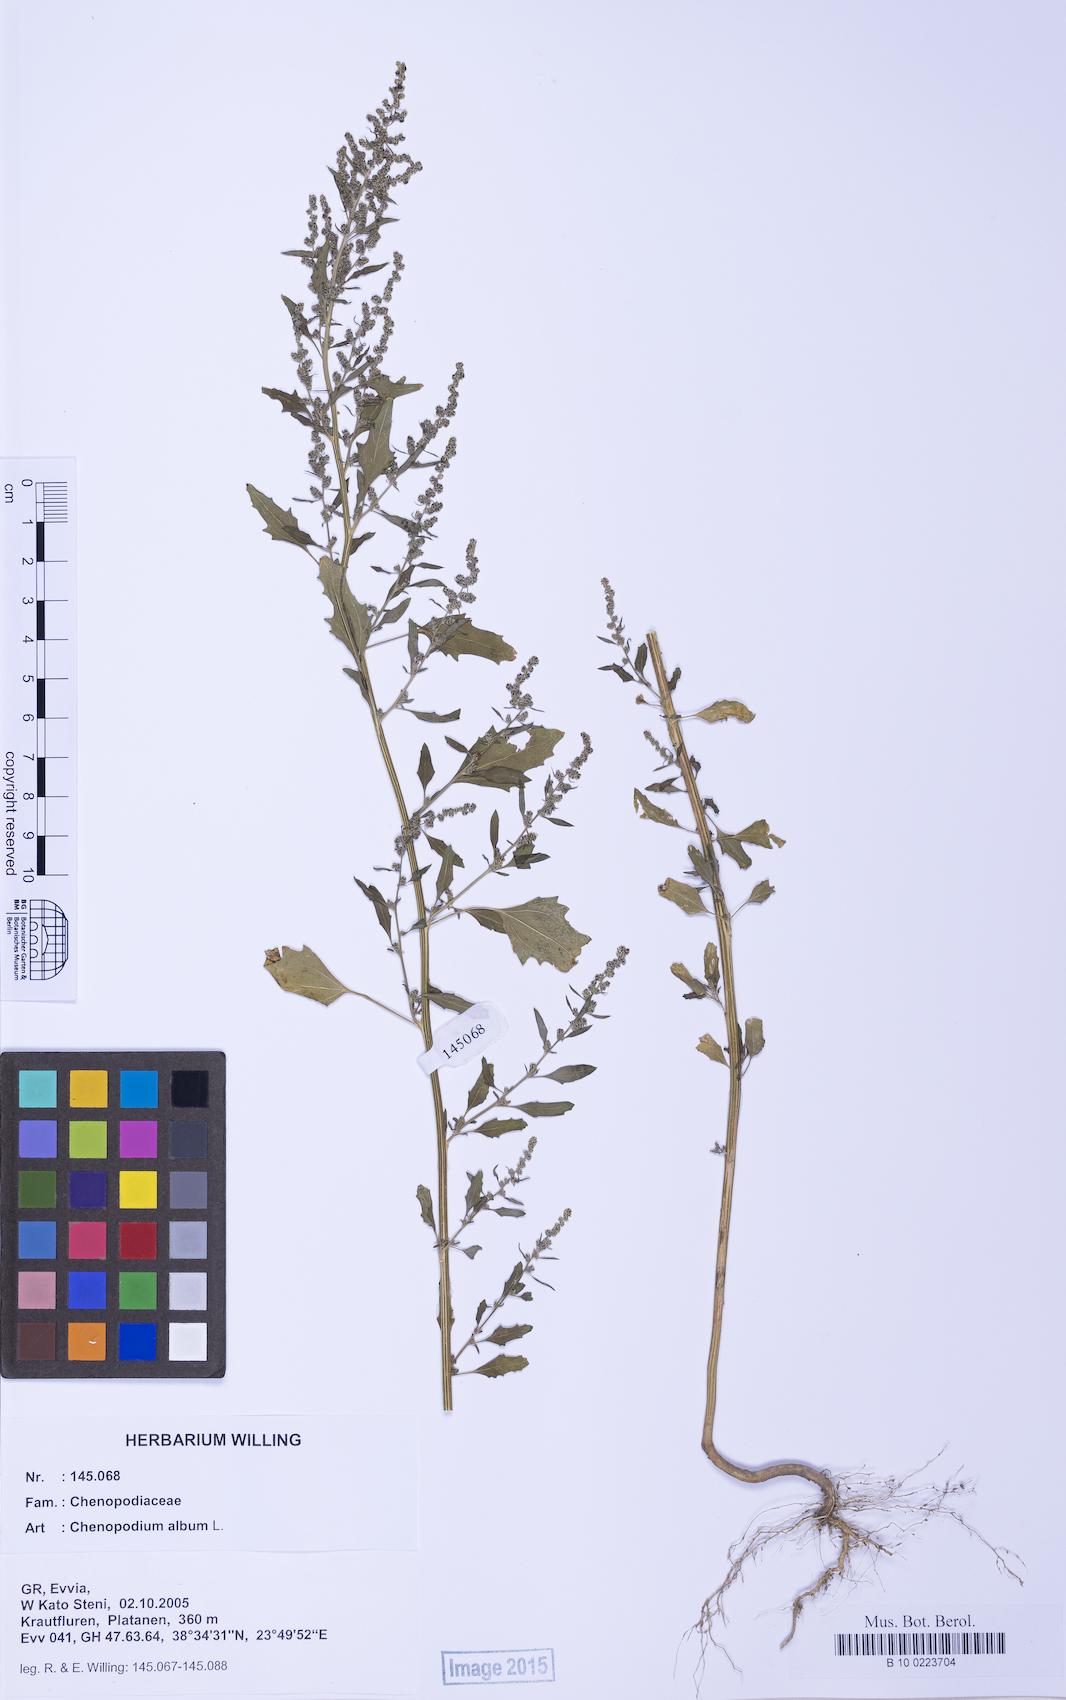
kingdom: Plantae
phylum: Tracheophyta
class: Magnoliopsida
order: Caryophyllales
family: Amaranthaceae
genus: Chenopodium
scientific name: Chenopodium album
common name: Fat-hen
